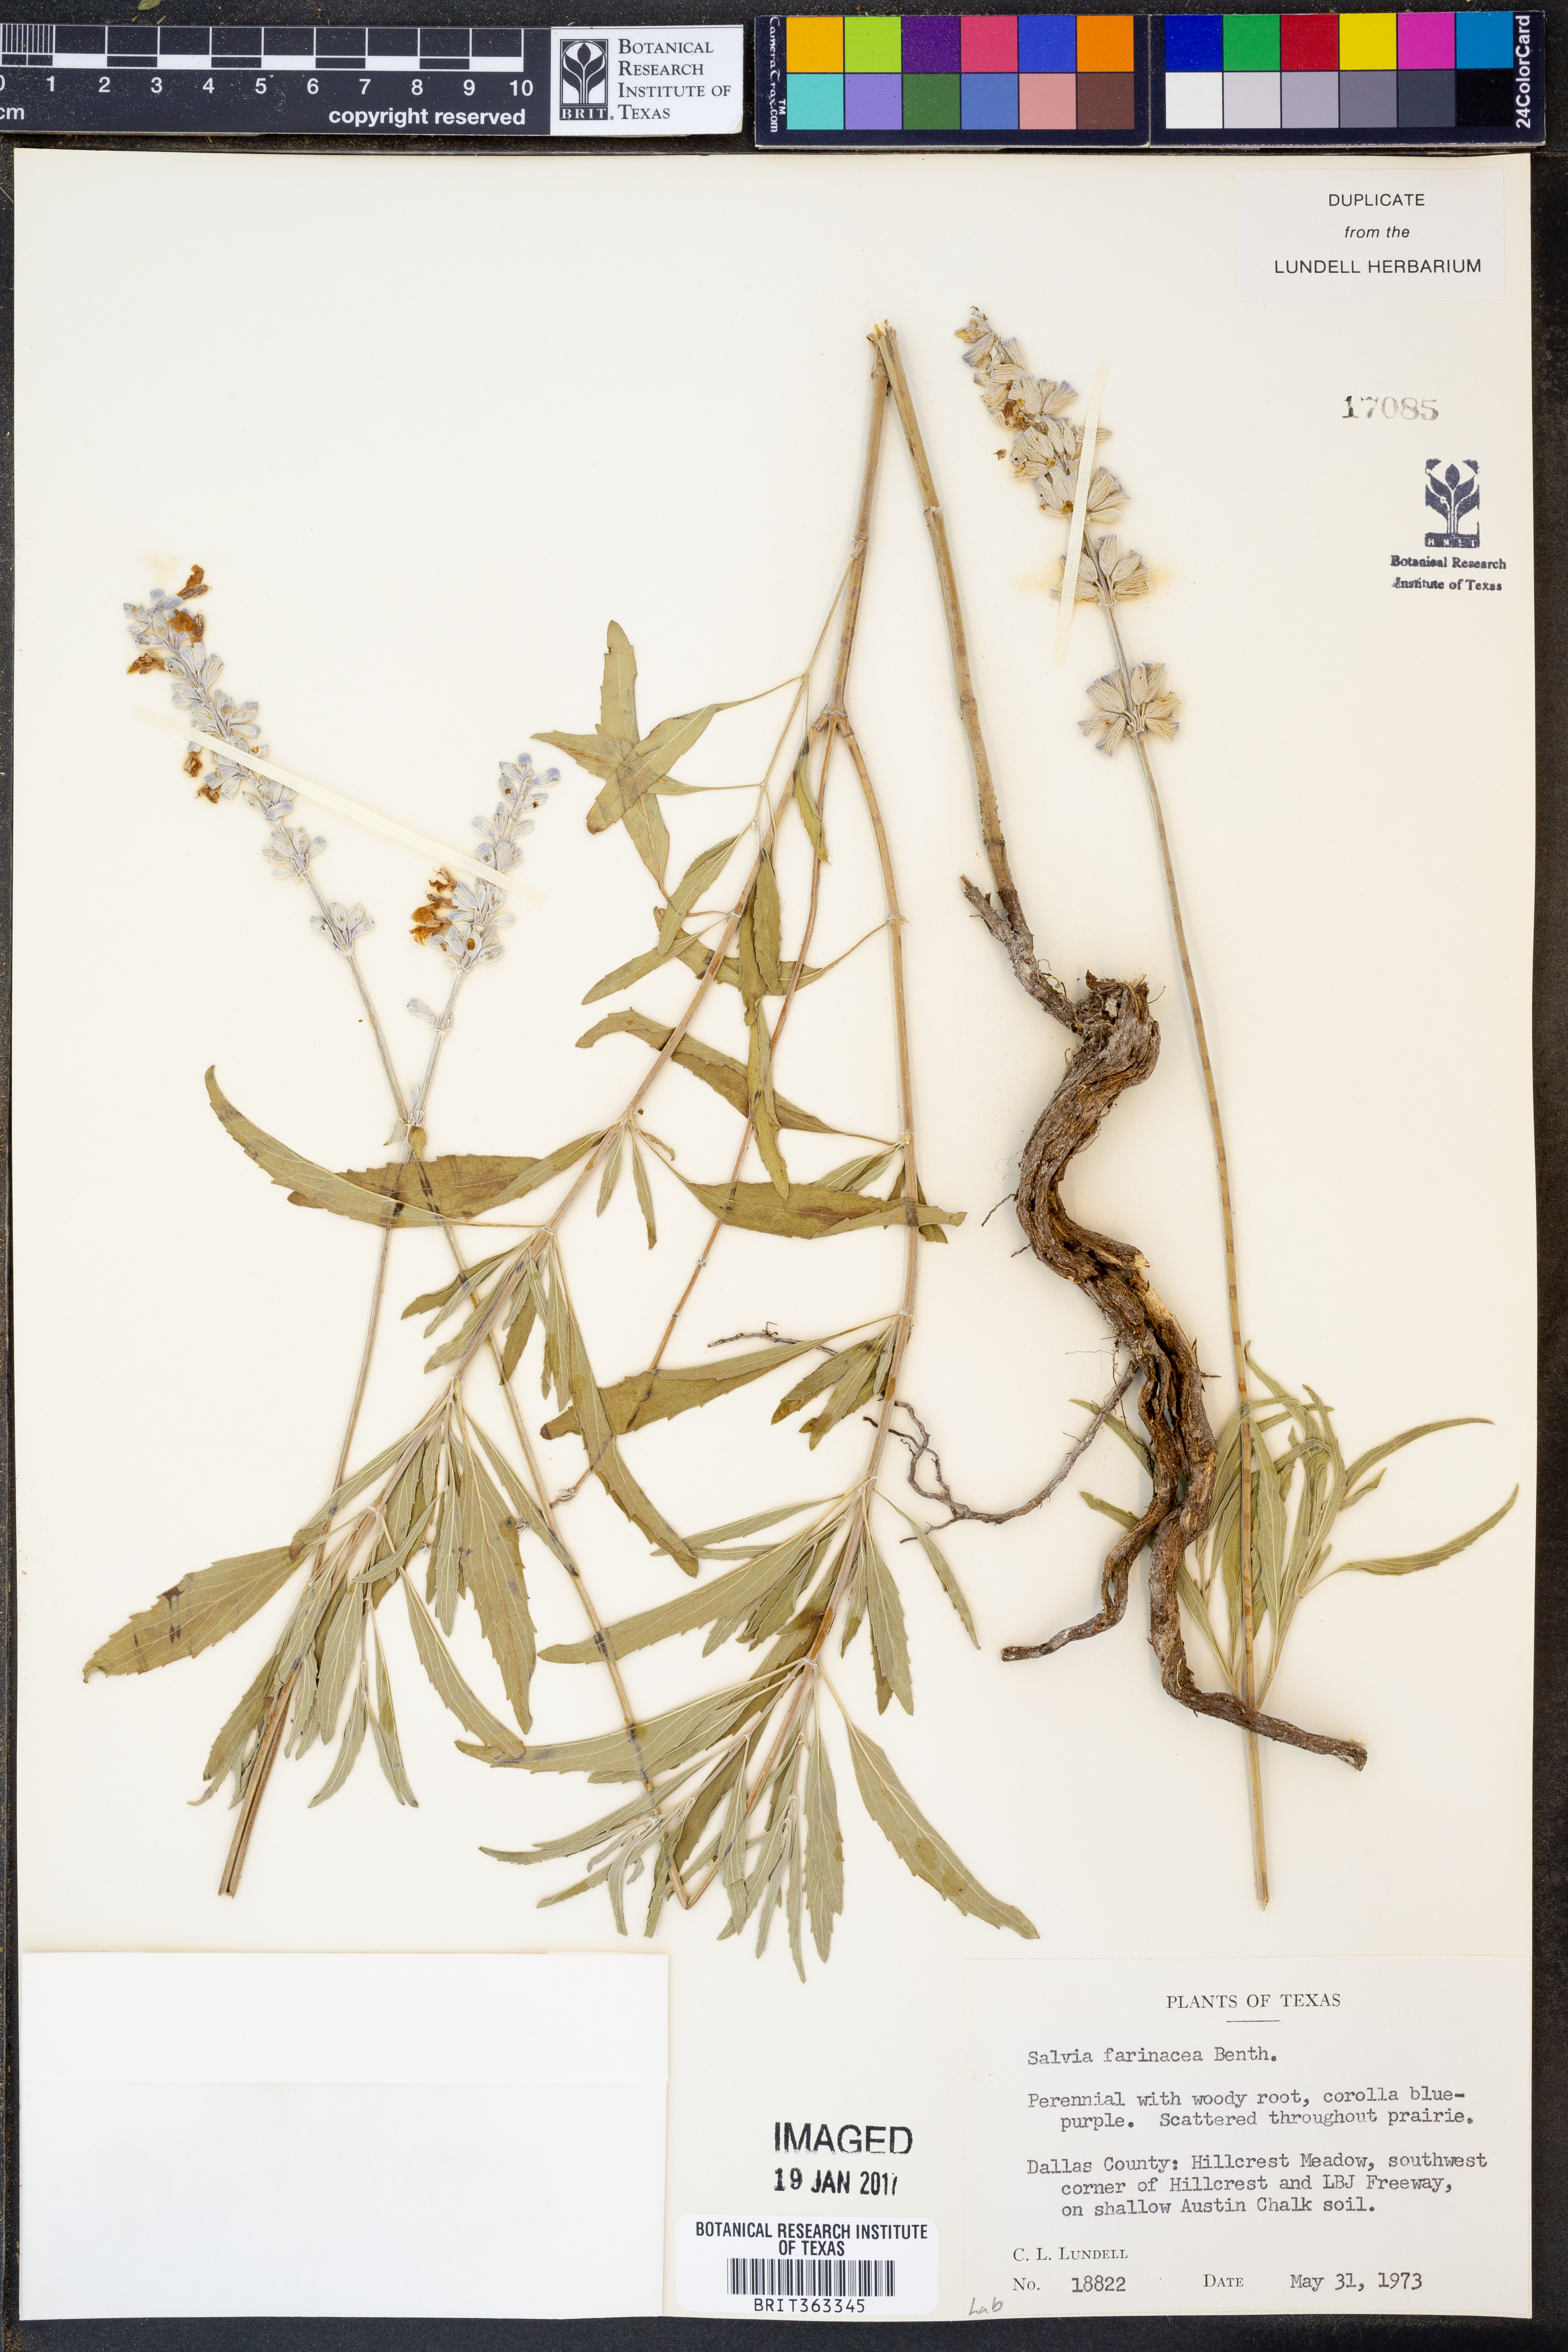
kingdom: Plantae
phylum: Tracheophyta
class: Magnoliopsida
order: Lamiales
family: Lamiaceae
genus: Salvia
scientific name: Salvia farinacea
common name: Mealy sage
